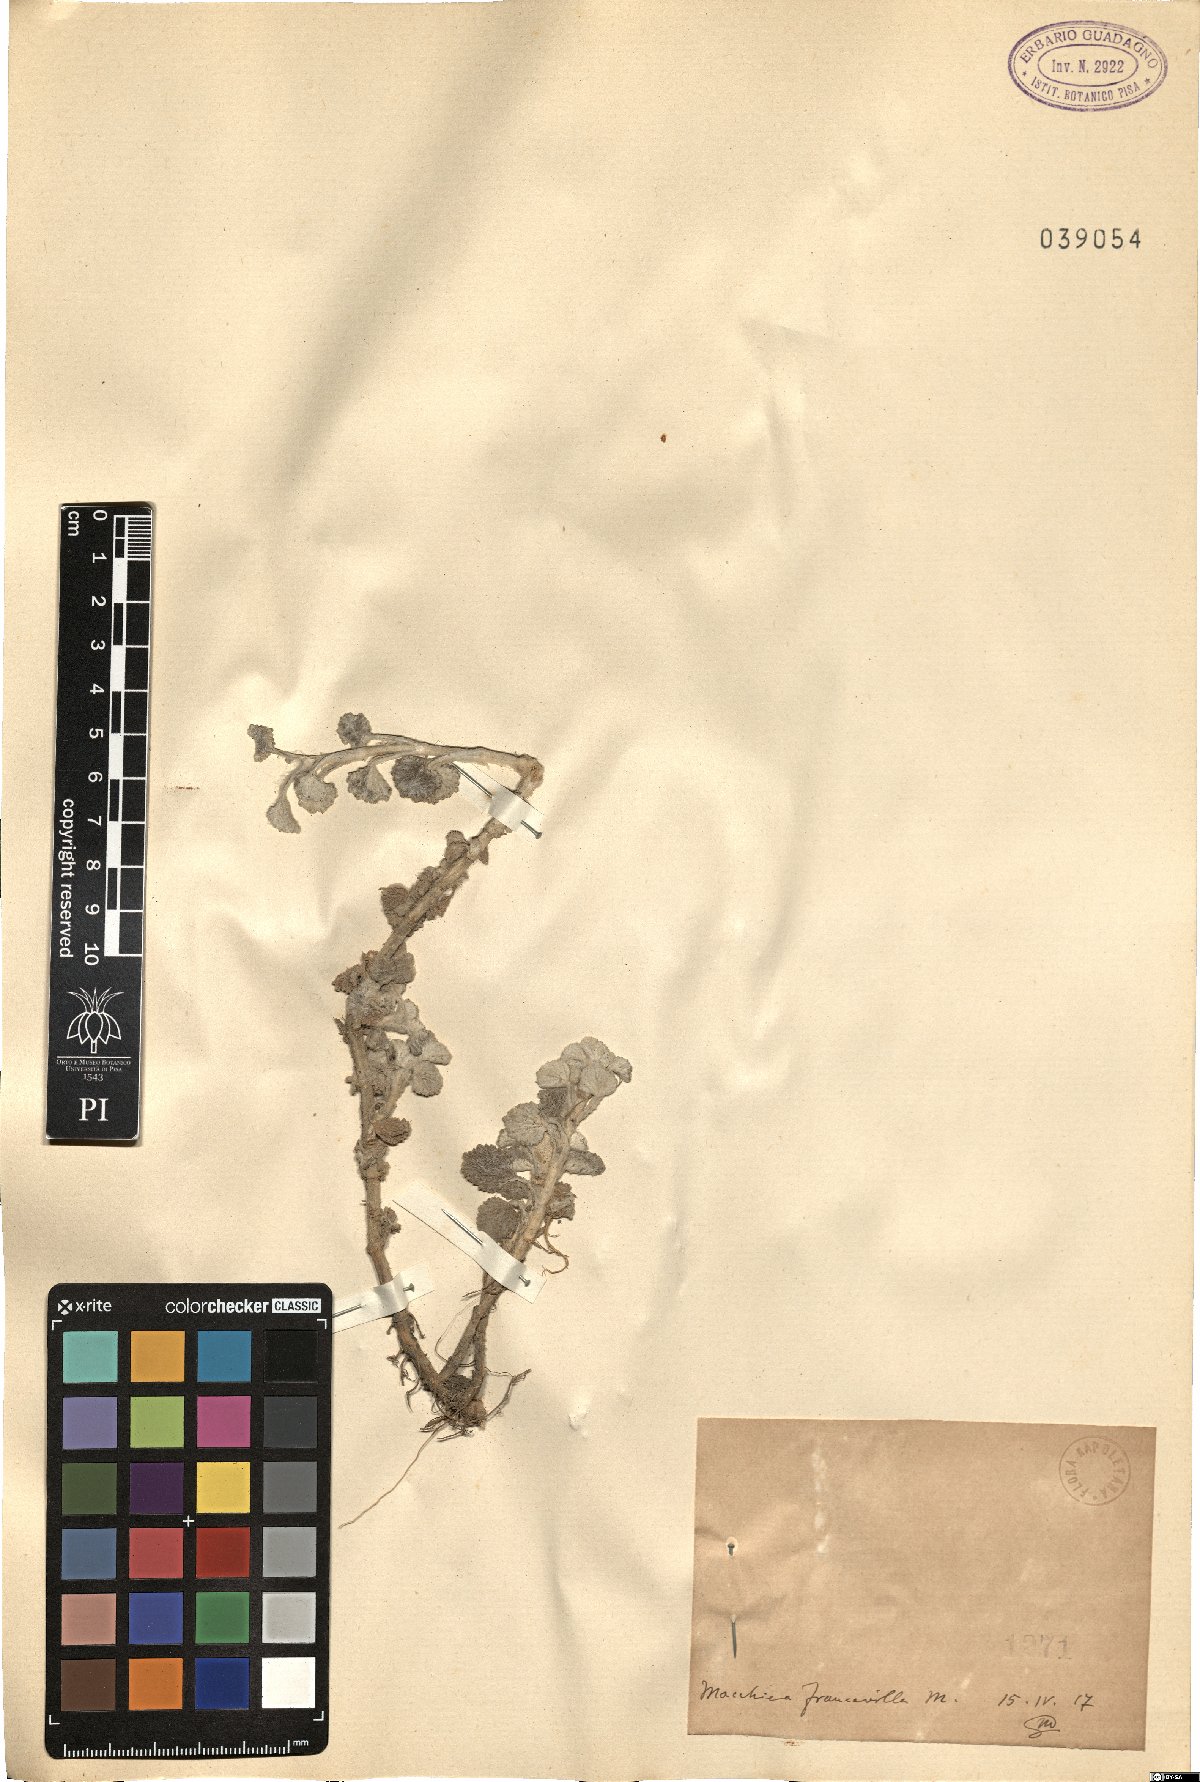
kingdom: Plantae
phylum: Tracheophyta
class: Magnoliopsida
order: Lamiales
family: Lamiaceae
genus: Marrubium
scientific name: Marrubium
